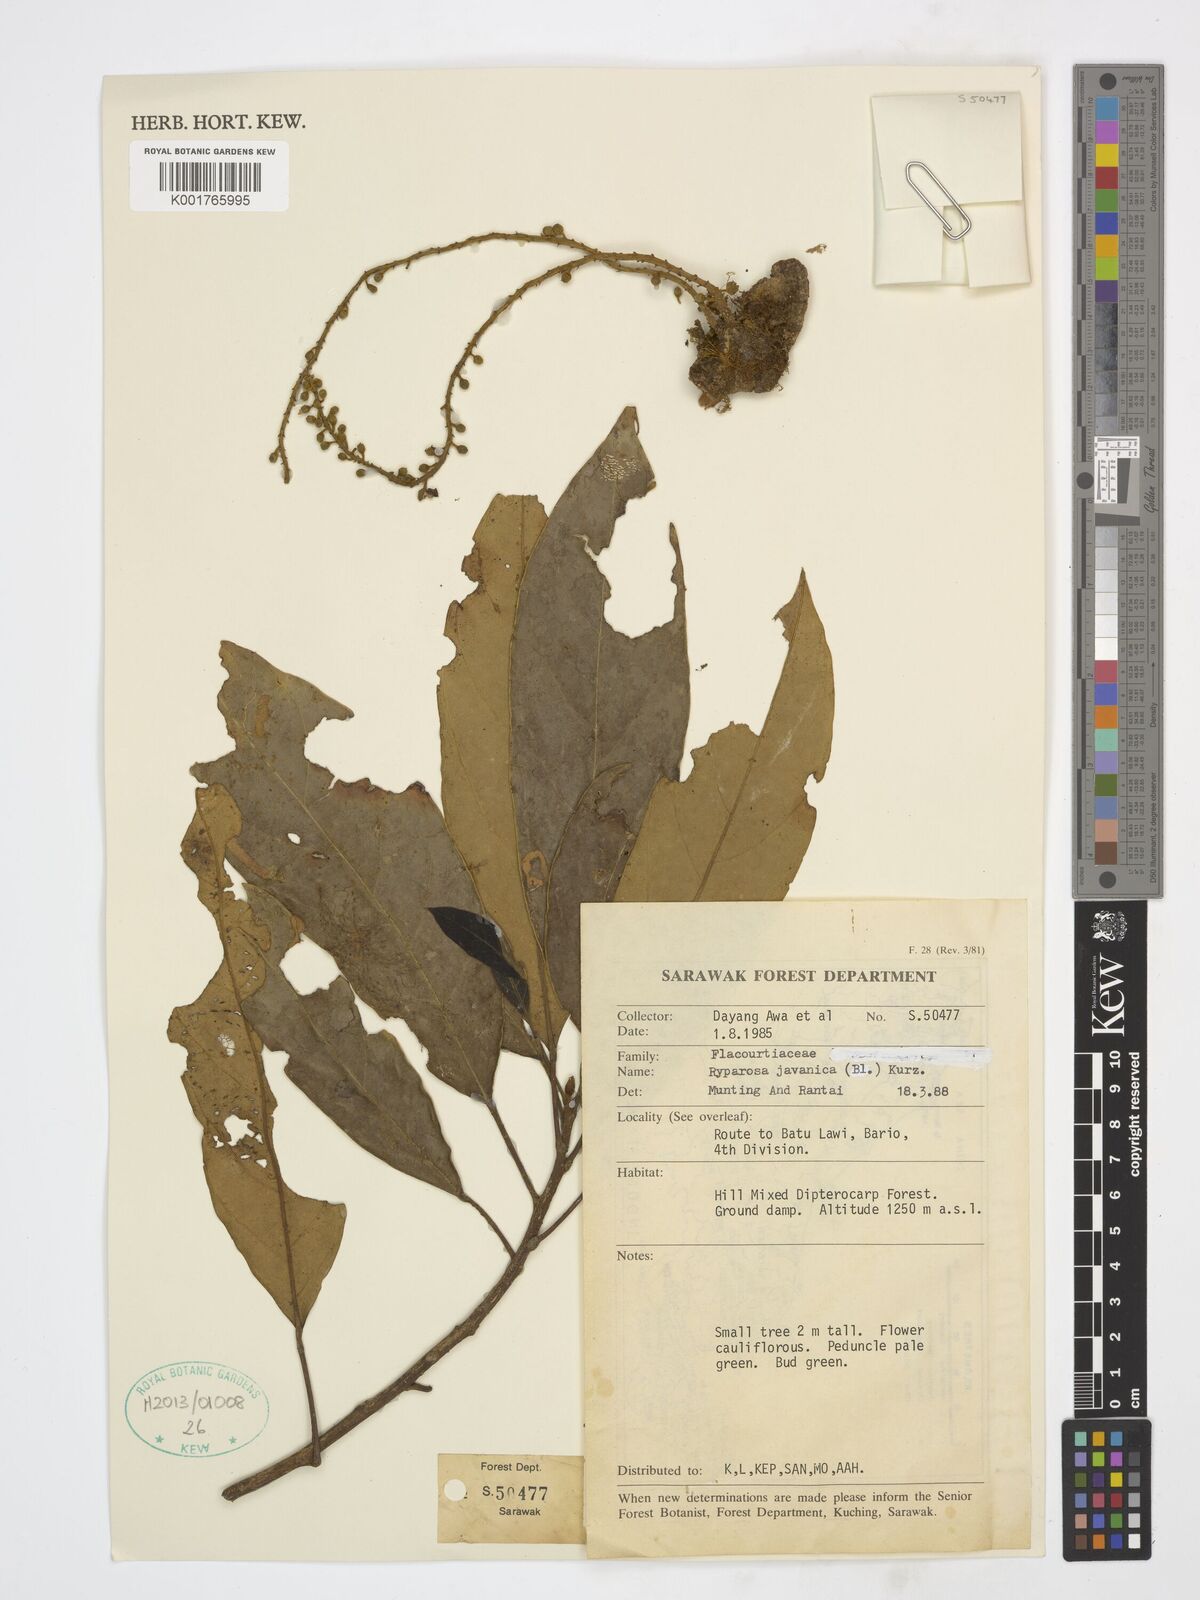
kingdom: Plantae
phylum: Tracheophyta
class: Magnoliopsida
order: Malpighiales
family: Achariaceae
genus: Ryparosa
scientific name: Ryparosa javanica
